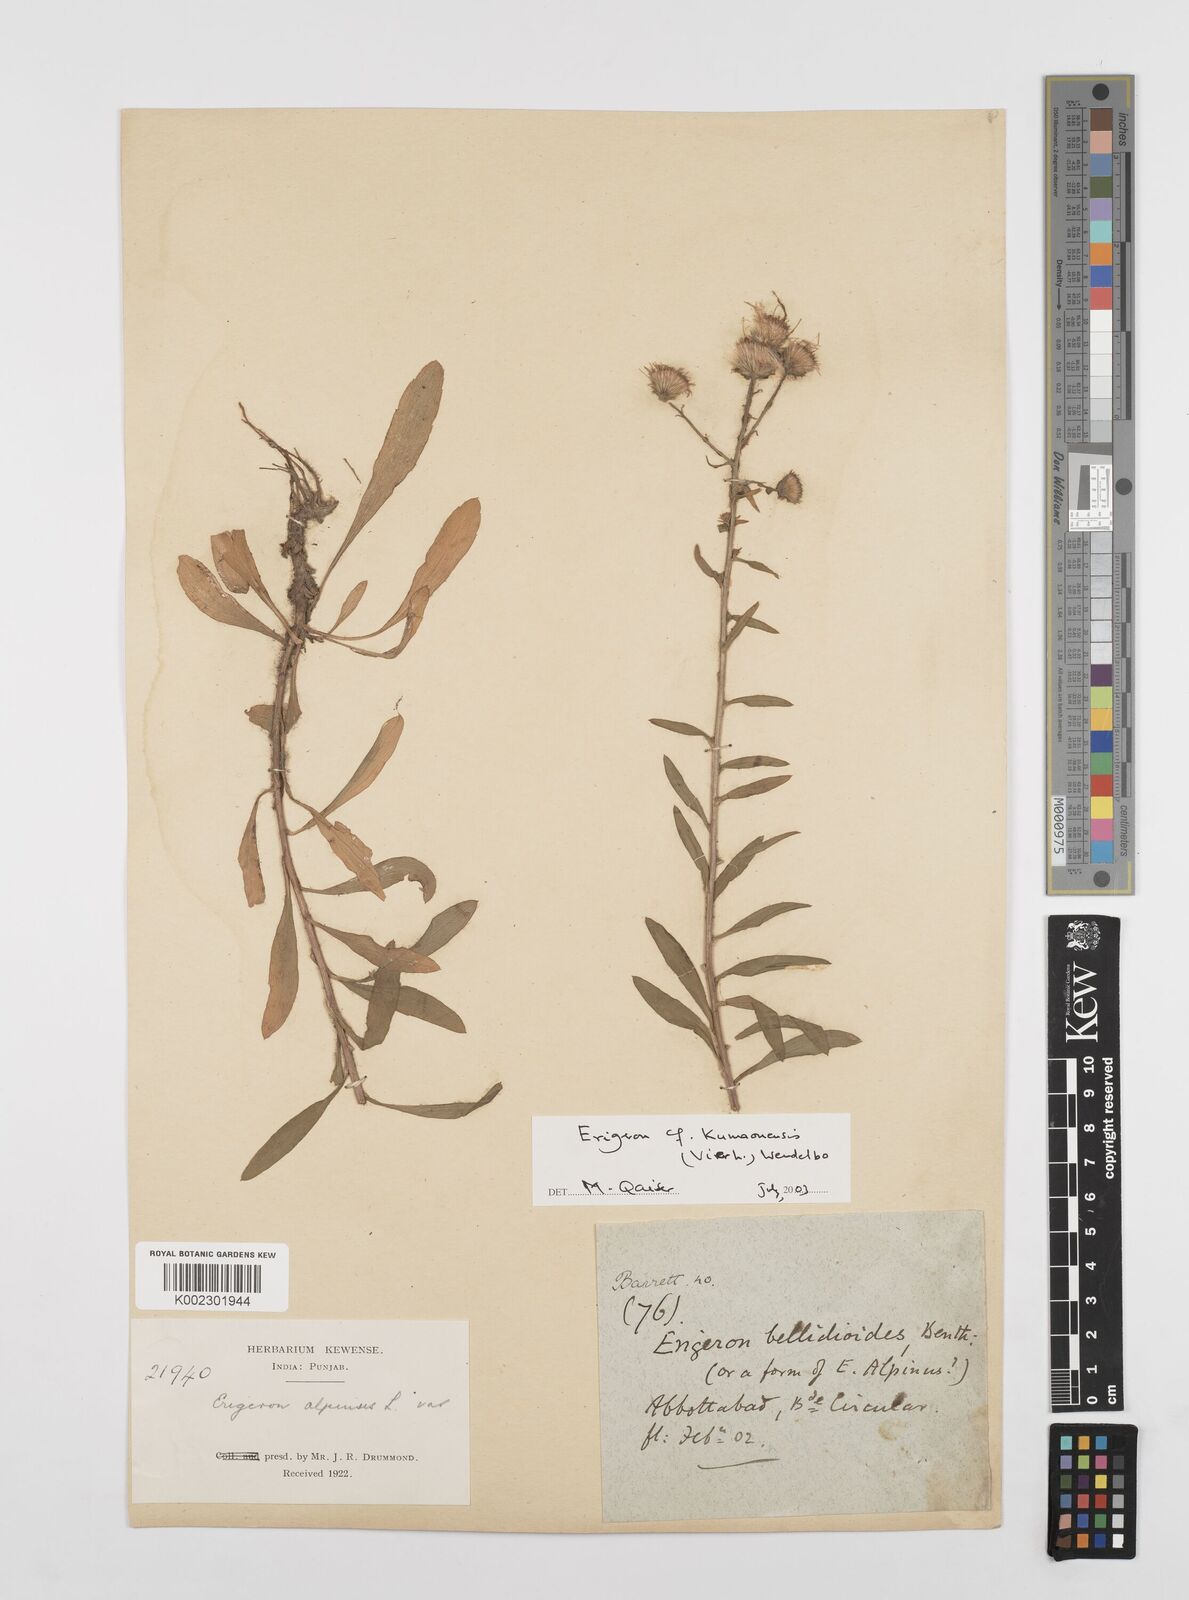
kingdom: Plantae
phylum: Tracheophyta
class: Magnoliopsida
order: Asterales
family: Asteraceae
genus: Erigeron
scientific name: Erigeron alpinus
